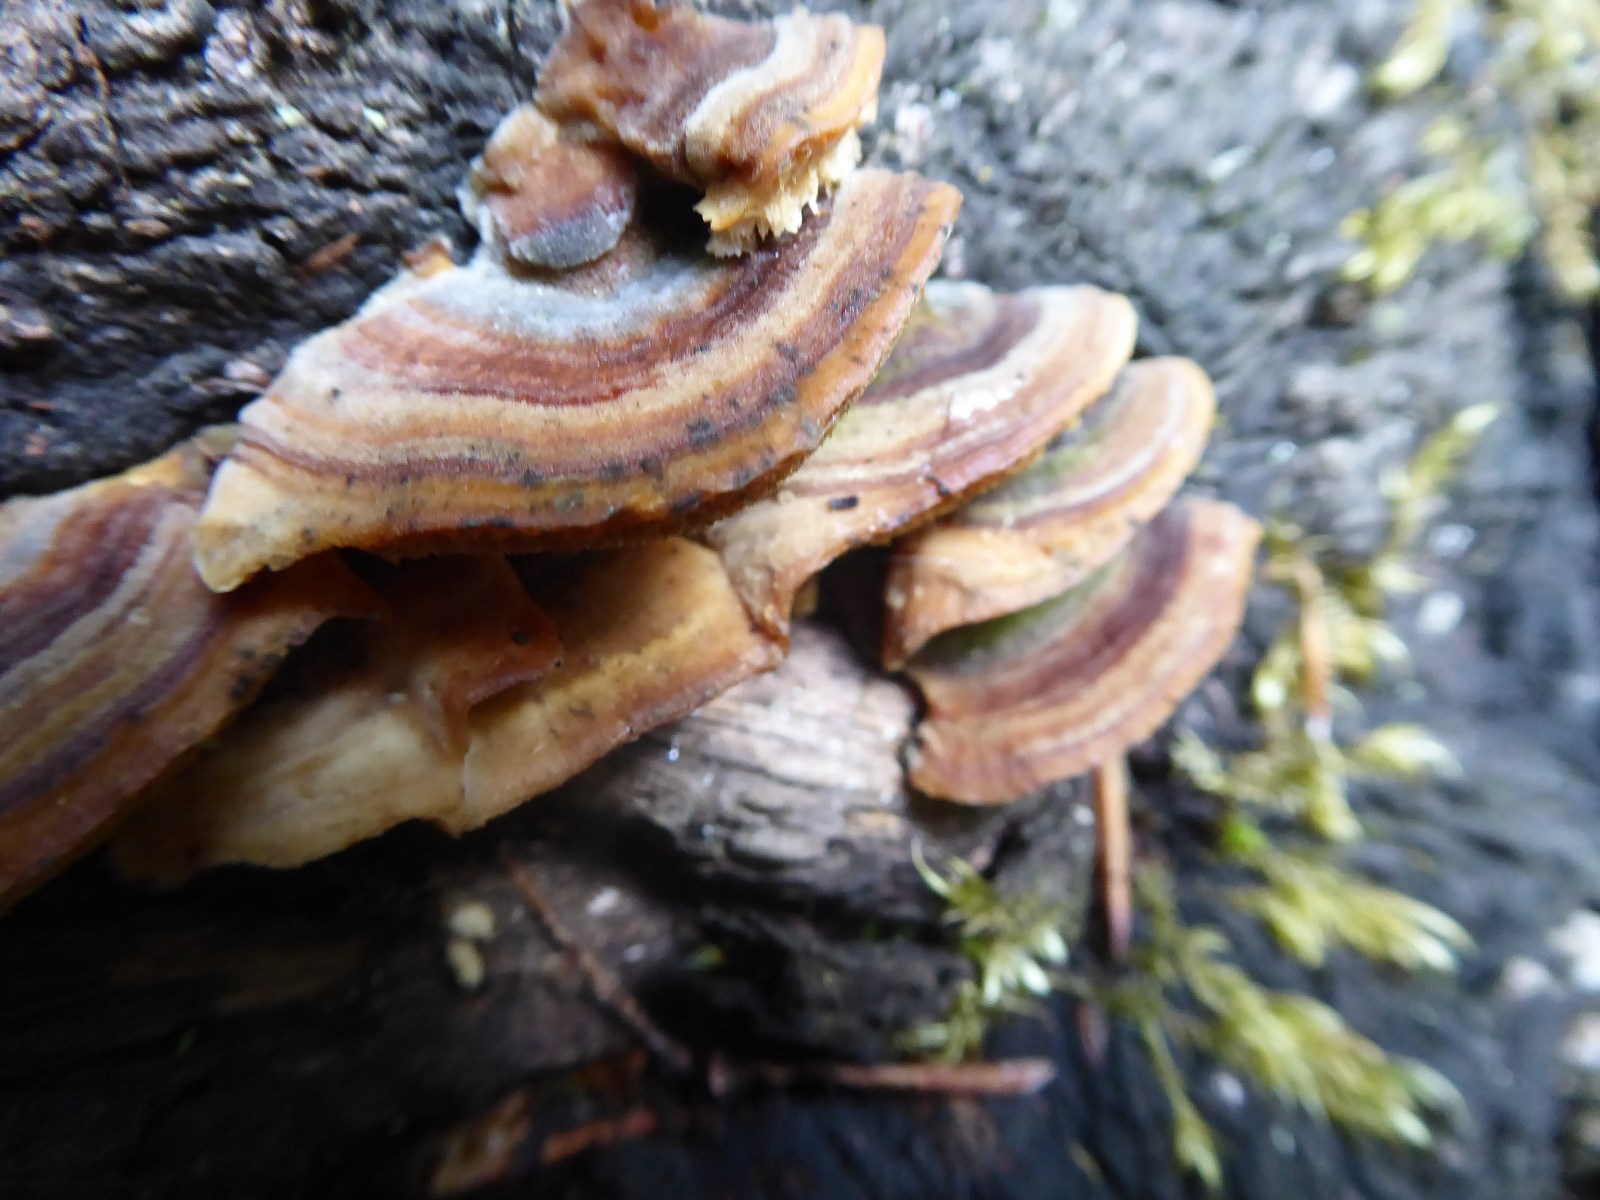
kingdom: Fungi
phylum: Basidiomycota
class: Agaricomycetes
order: Polyporales
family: Polyporaceae
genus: Trametes
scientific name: Trametes versicolor
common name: broget læderporesvamp
